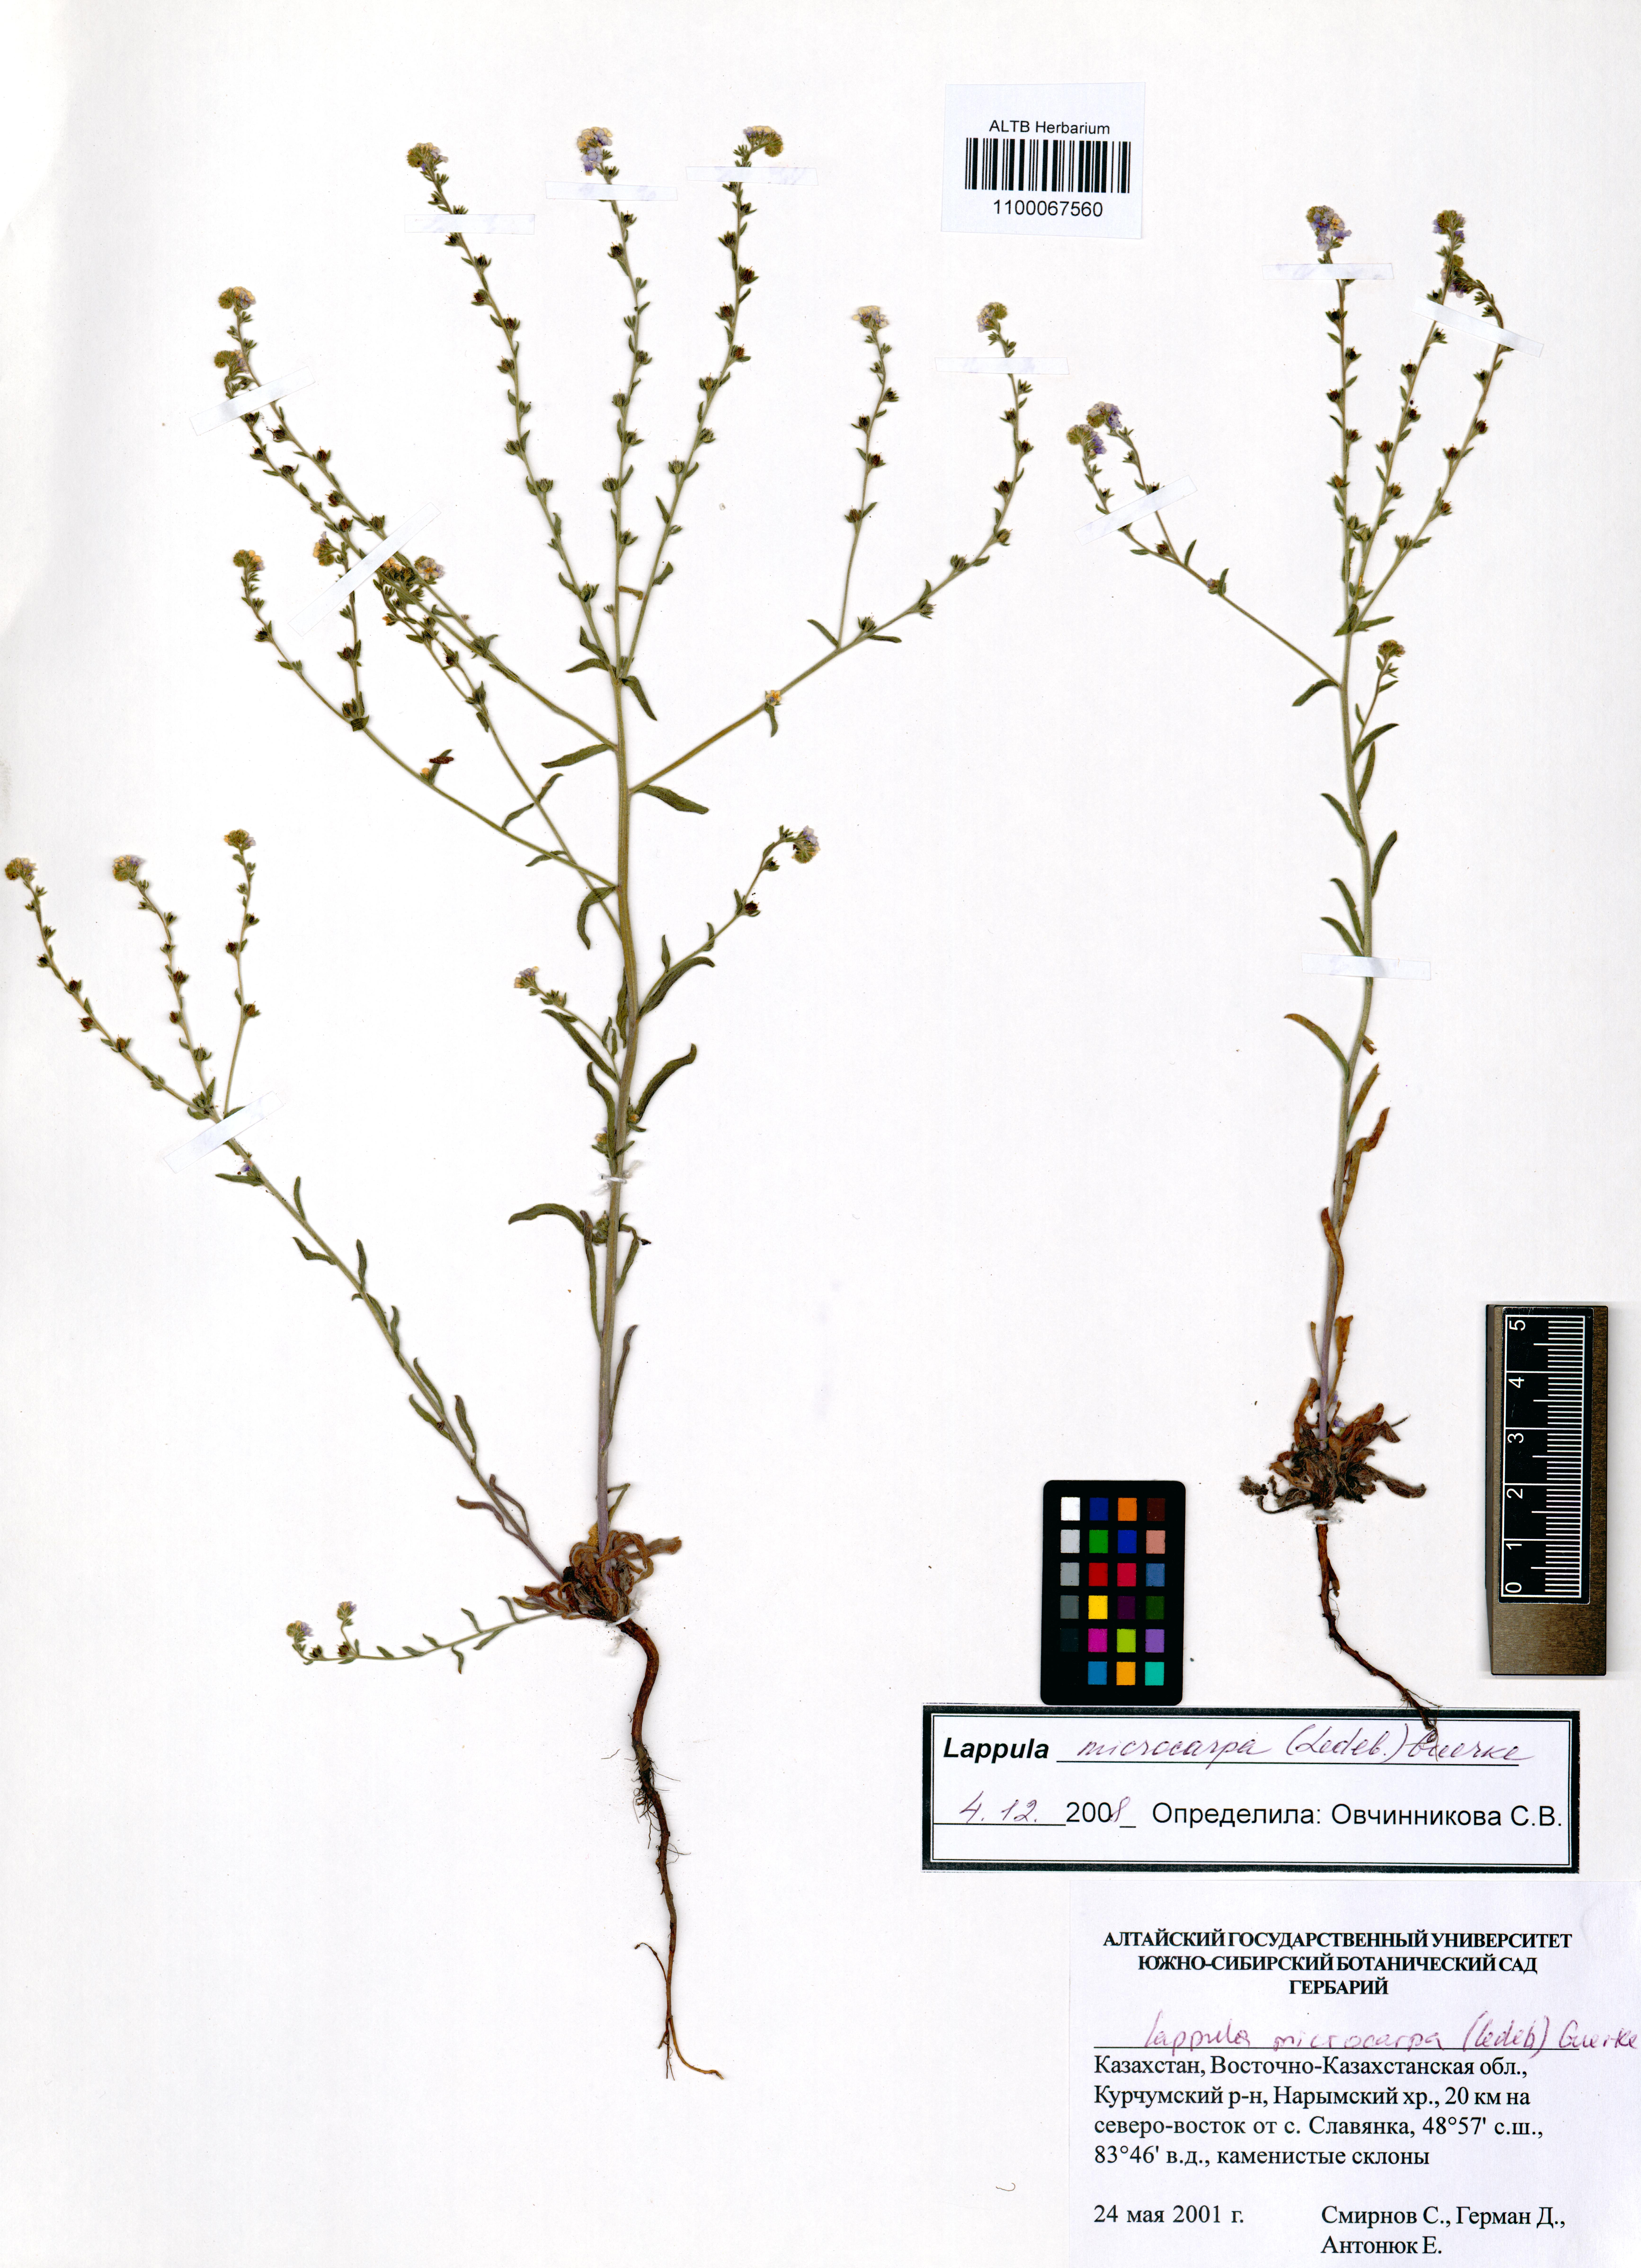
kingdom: Plantae
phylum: Tracheophyta
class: Magnoliopsida
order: Boraginales
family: Boraginaceae
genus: Lappula
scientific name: Lappula microcarpa
